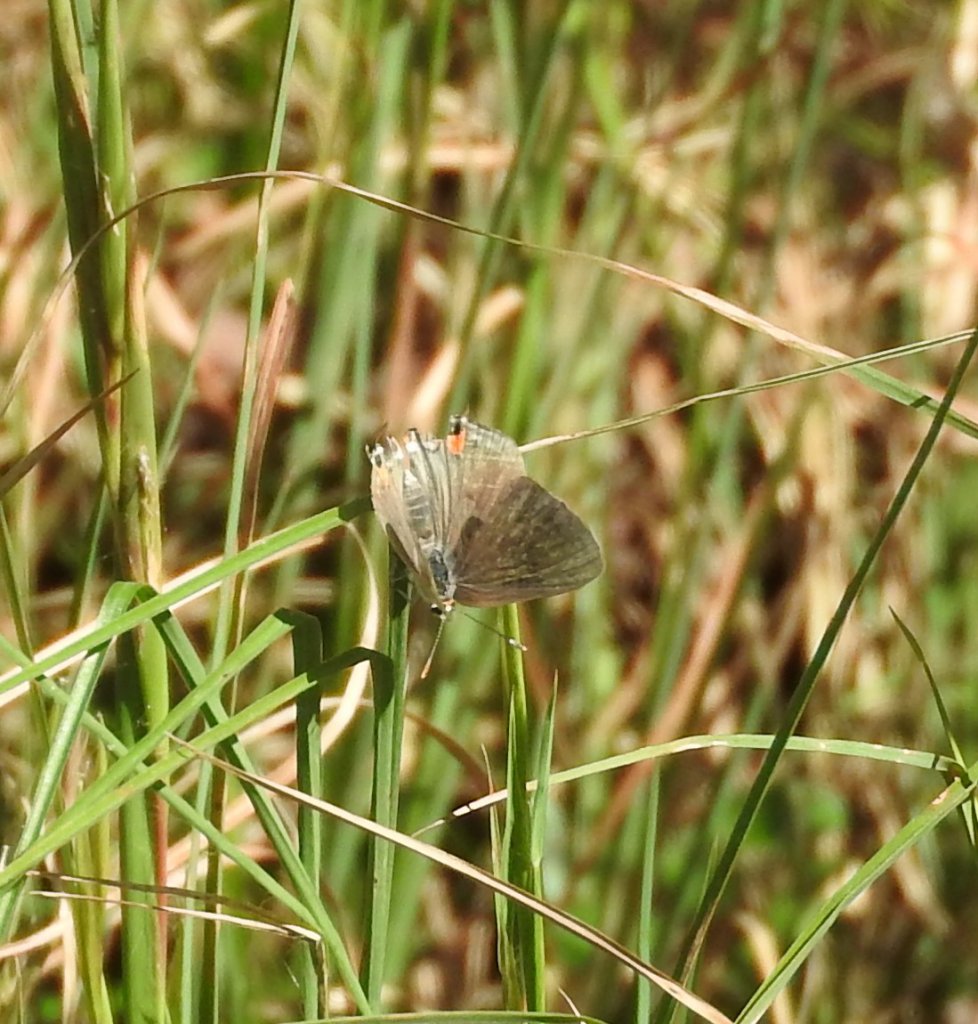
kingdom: Animalia
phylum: Arthropoda
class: Insecta
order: Lepidoptera
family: Lycaenidae
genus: Strymon
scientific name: Strymon melinus
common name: Gray Hairstreak
